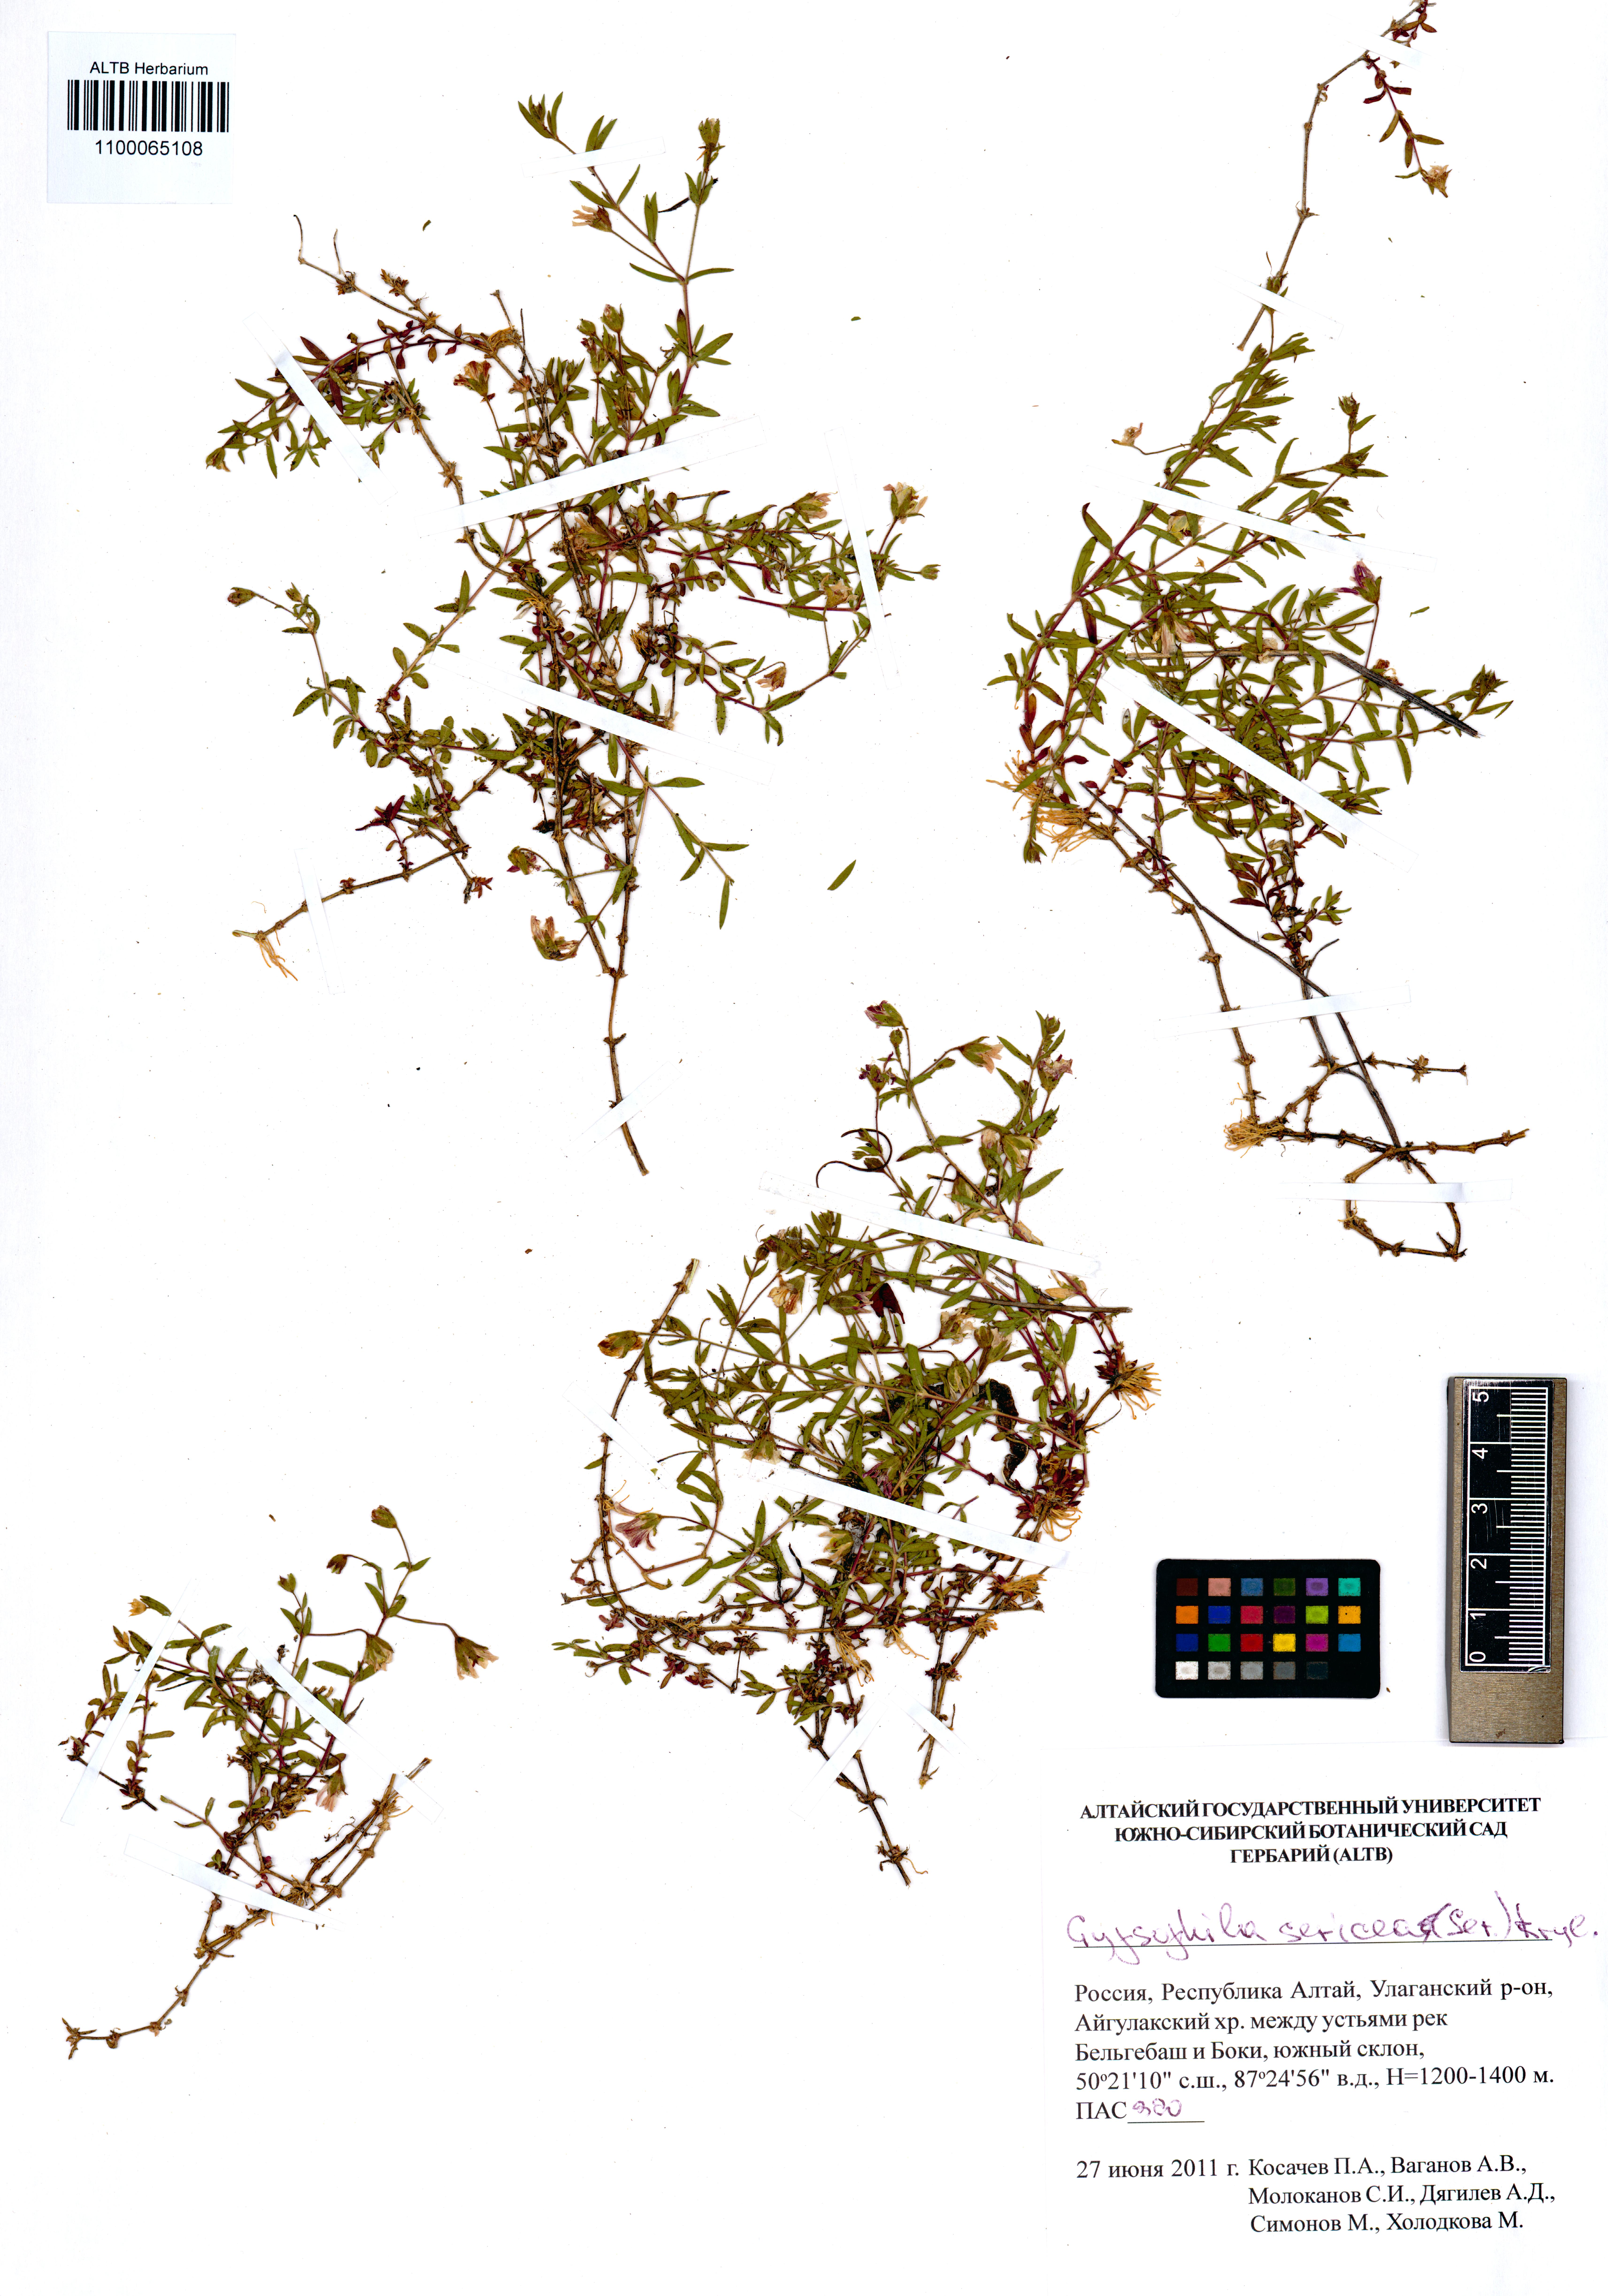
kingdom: Plantae
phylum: Tracheophyta
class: Magnoliopsida
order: Caryophyllales
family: Caryophyllaceae
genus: Heterochroa
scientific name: Heterochroa petraea
